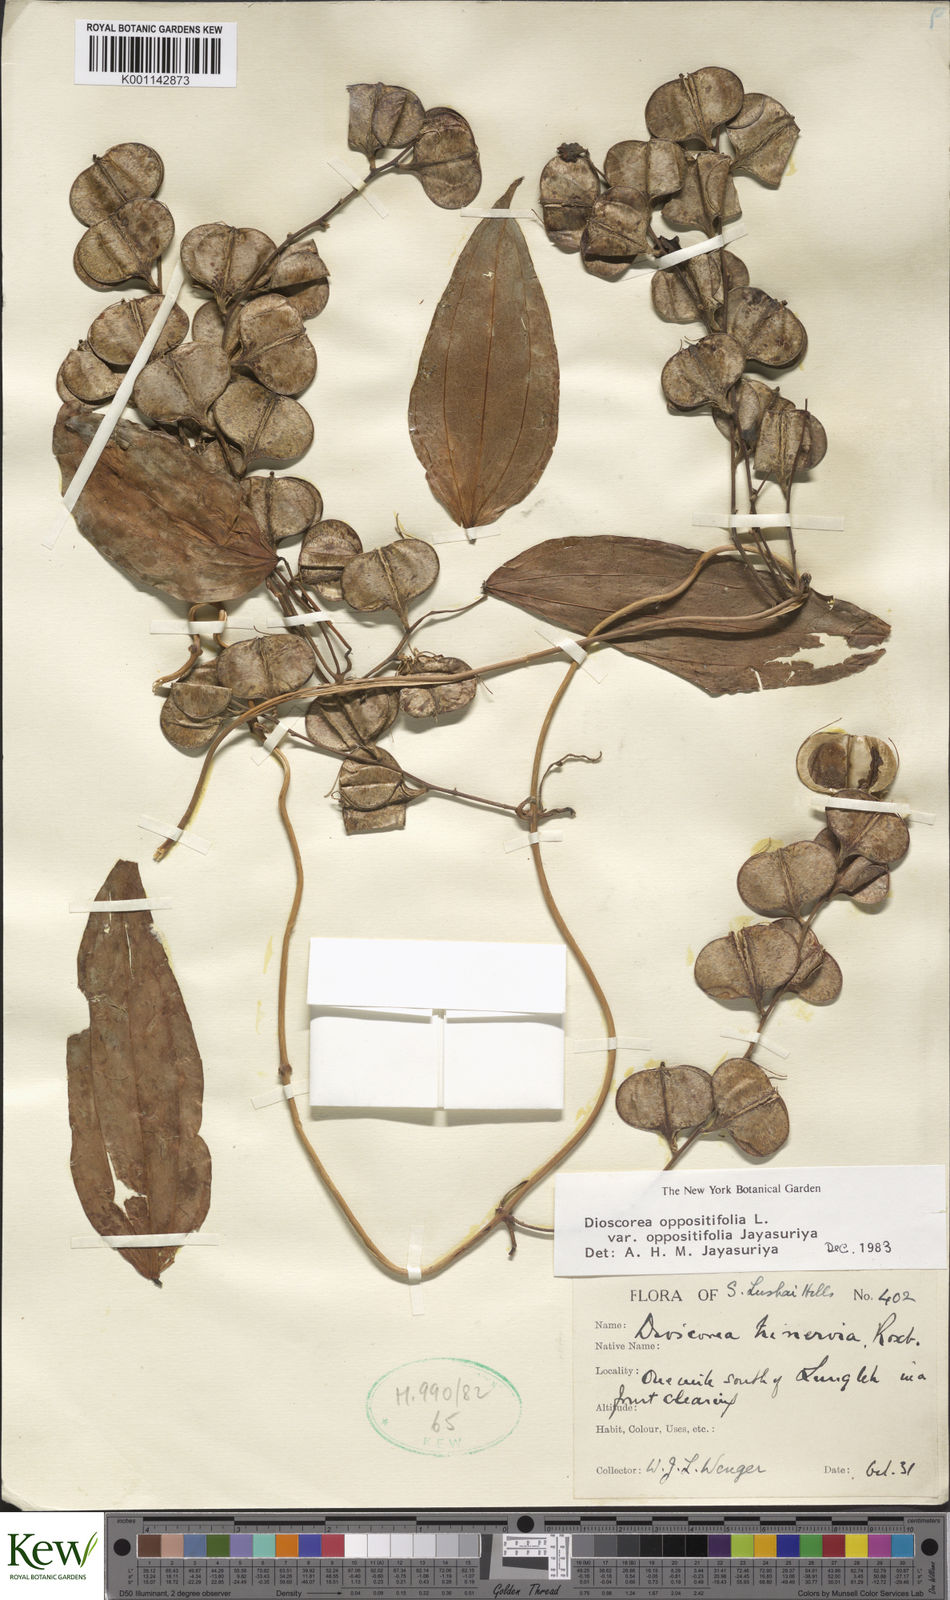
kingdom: Plantae
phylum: Tracheophyta
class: Liliopsida
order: Dioscoreales
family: Dioscoreaceae
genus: Dioscorea
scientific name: Dioscorea oppositifolia
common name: Chinese yam
